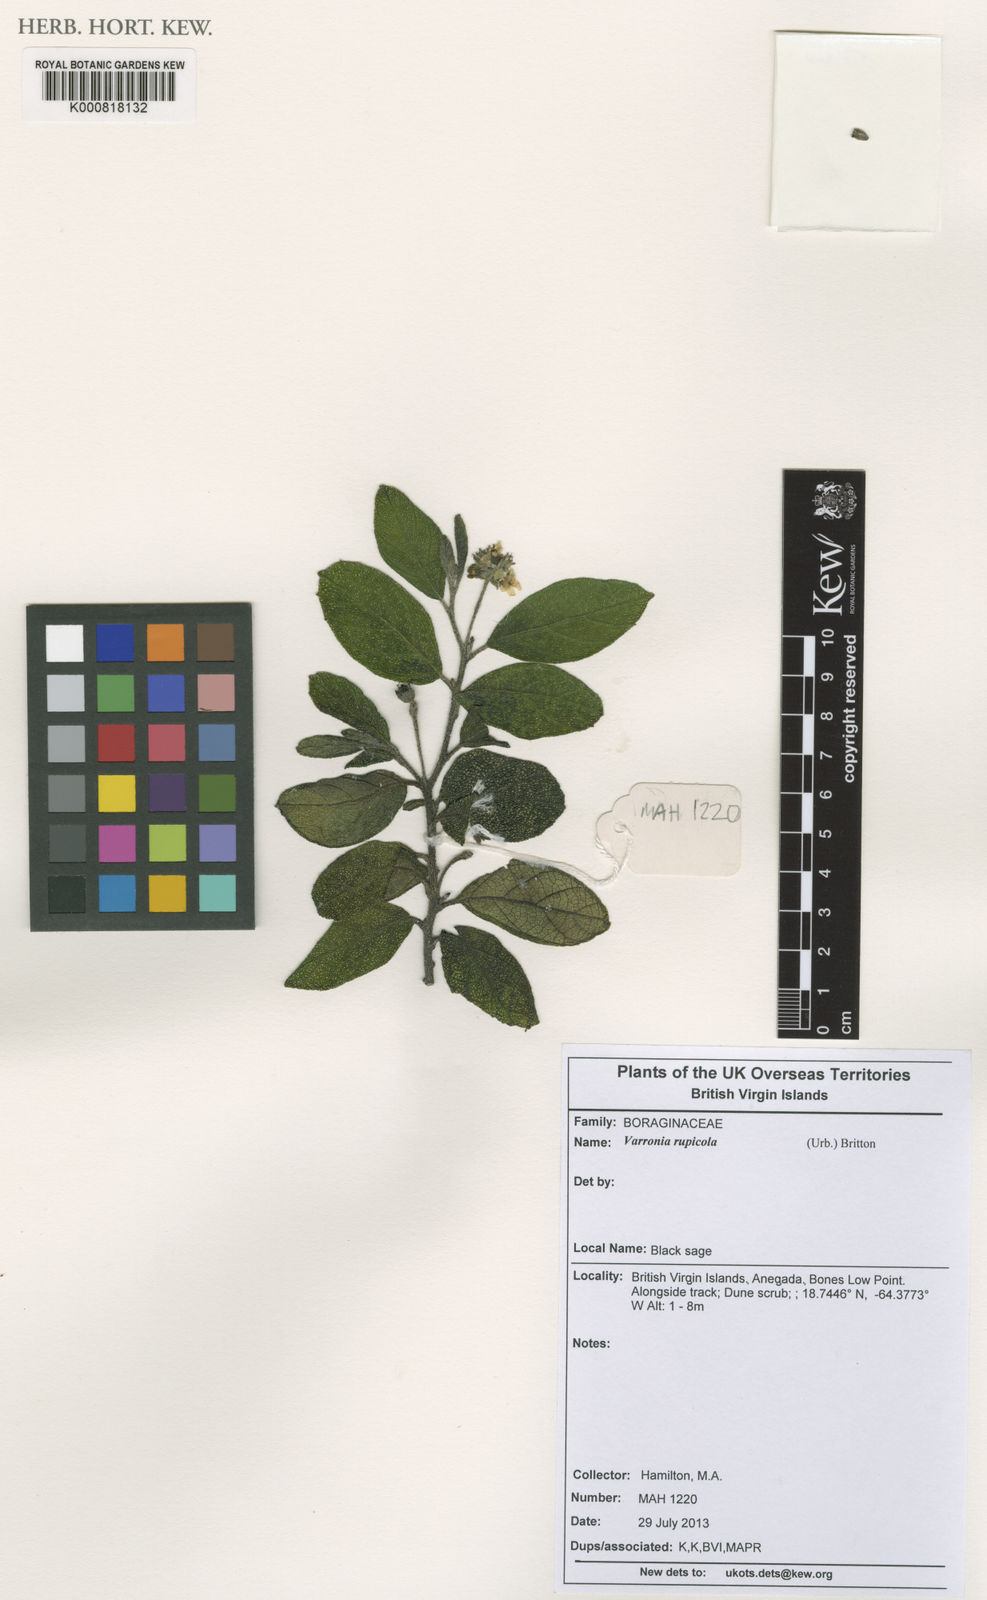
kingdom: Plantae
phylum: Tracheophyta
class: Magnoliopsida
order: Boraginales
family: Cordiaceae
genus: Varronia
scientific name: Varronia rupicola
